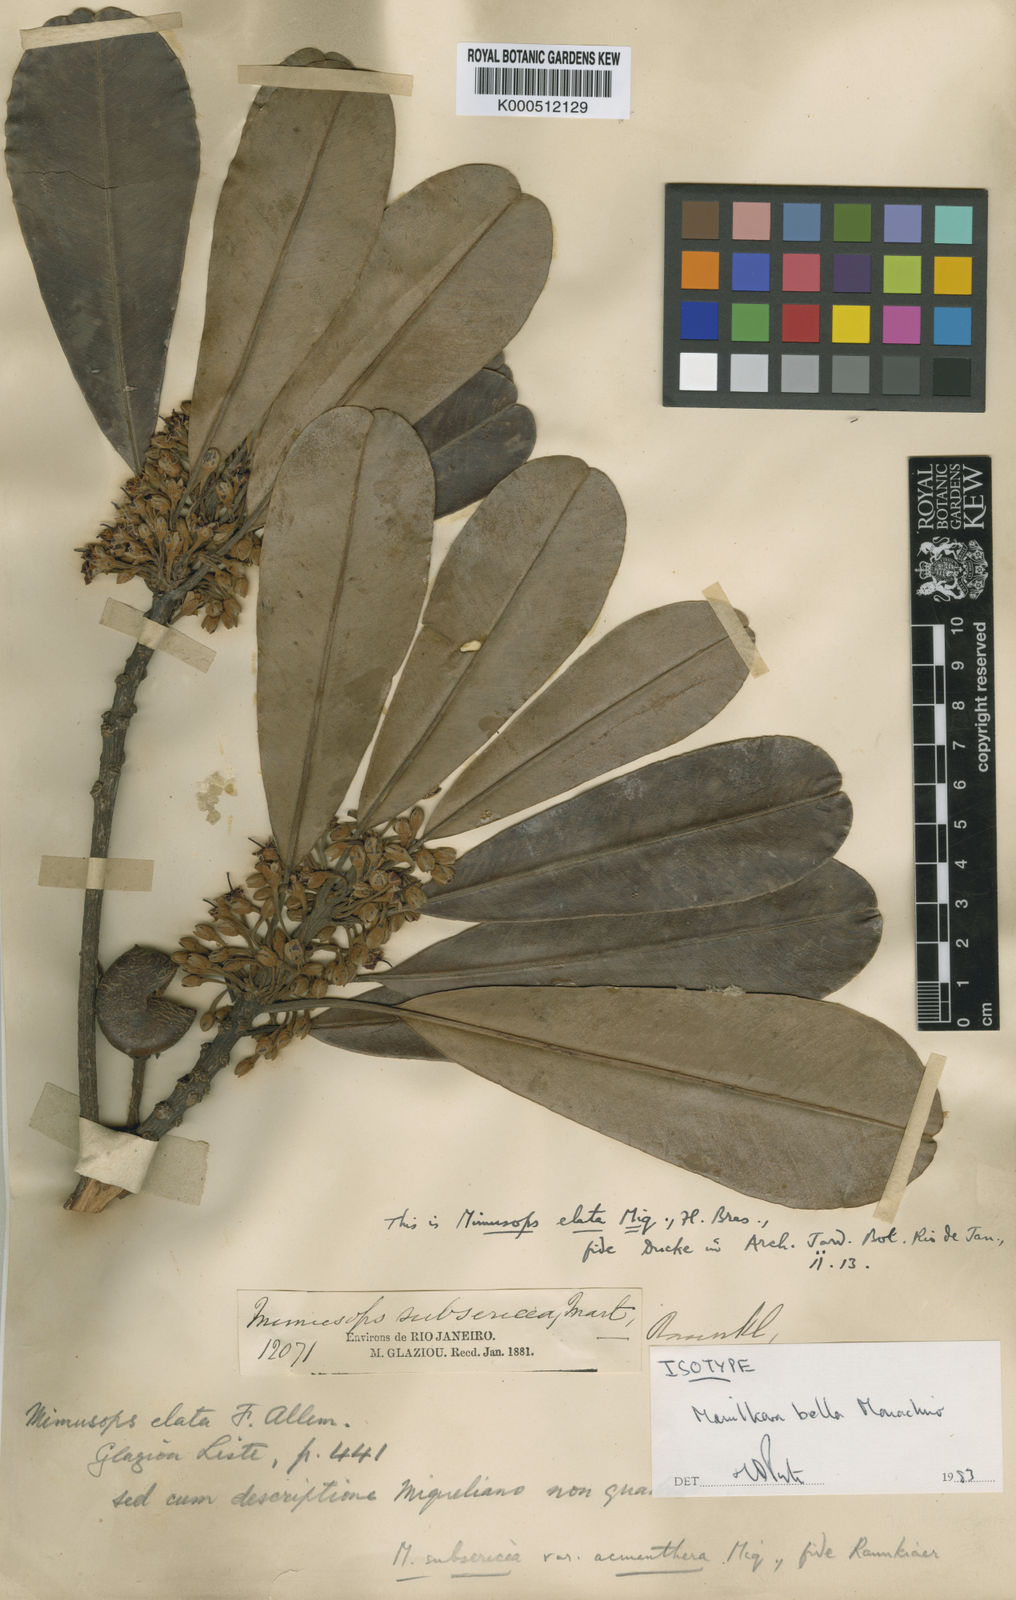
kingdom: Plantae
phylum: Tracheophyta
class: Magnoliopsida
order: Ericales
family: Sapotaceae
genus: Manilkara
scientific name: Manilkara subsericea
